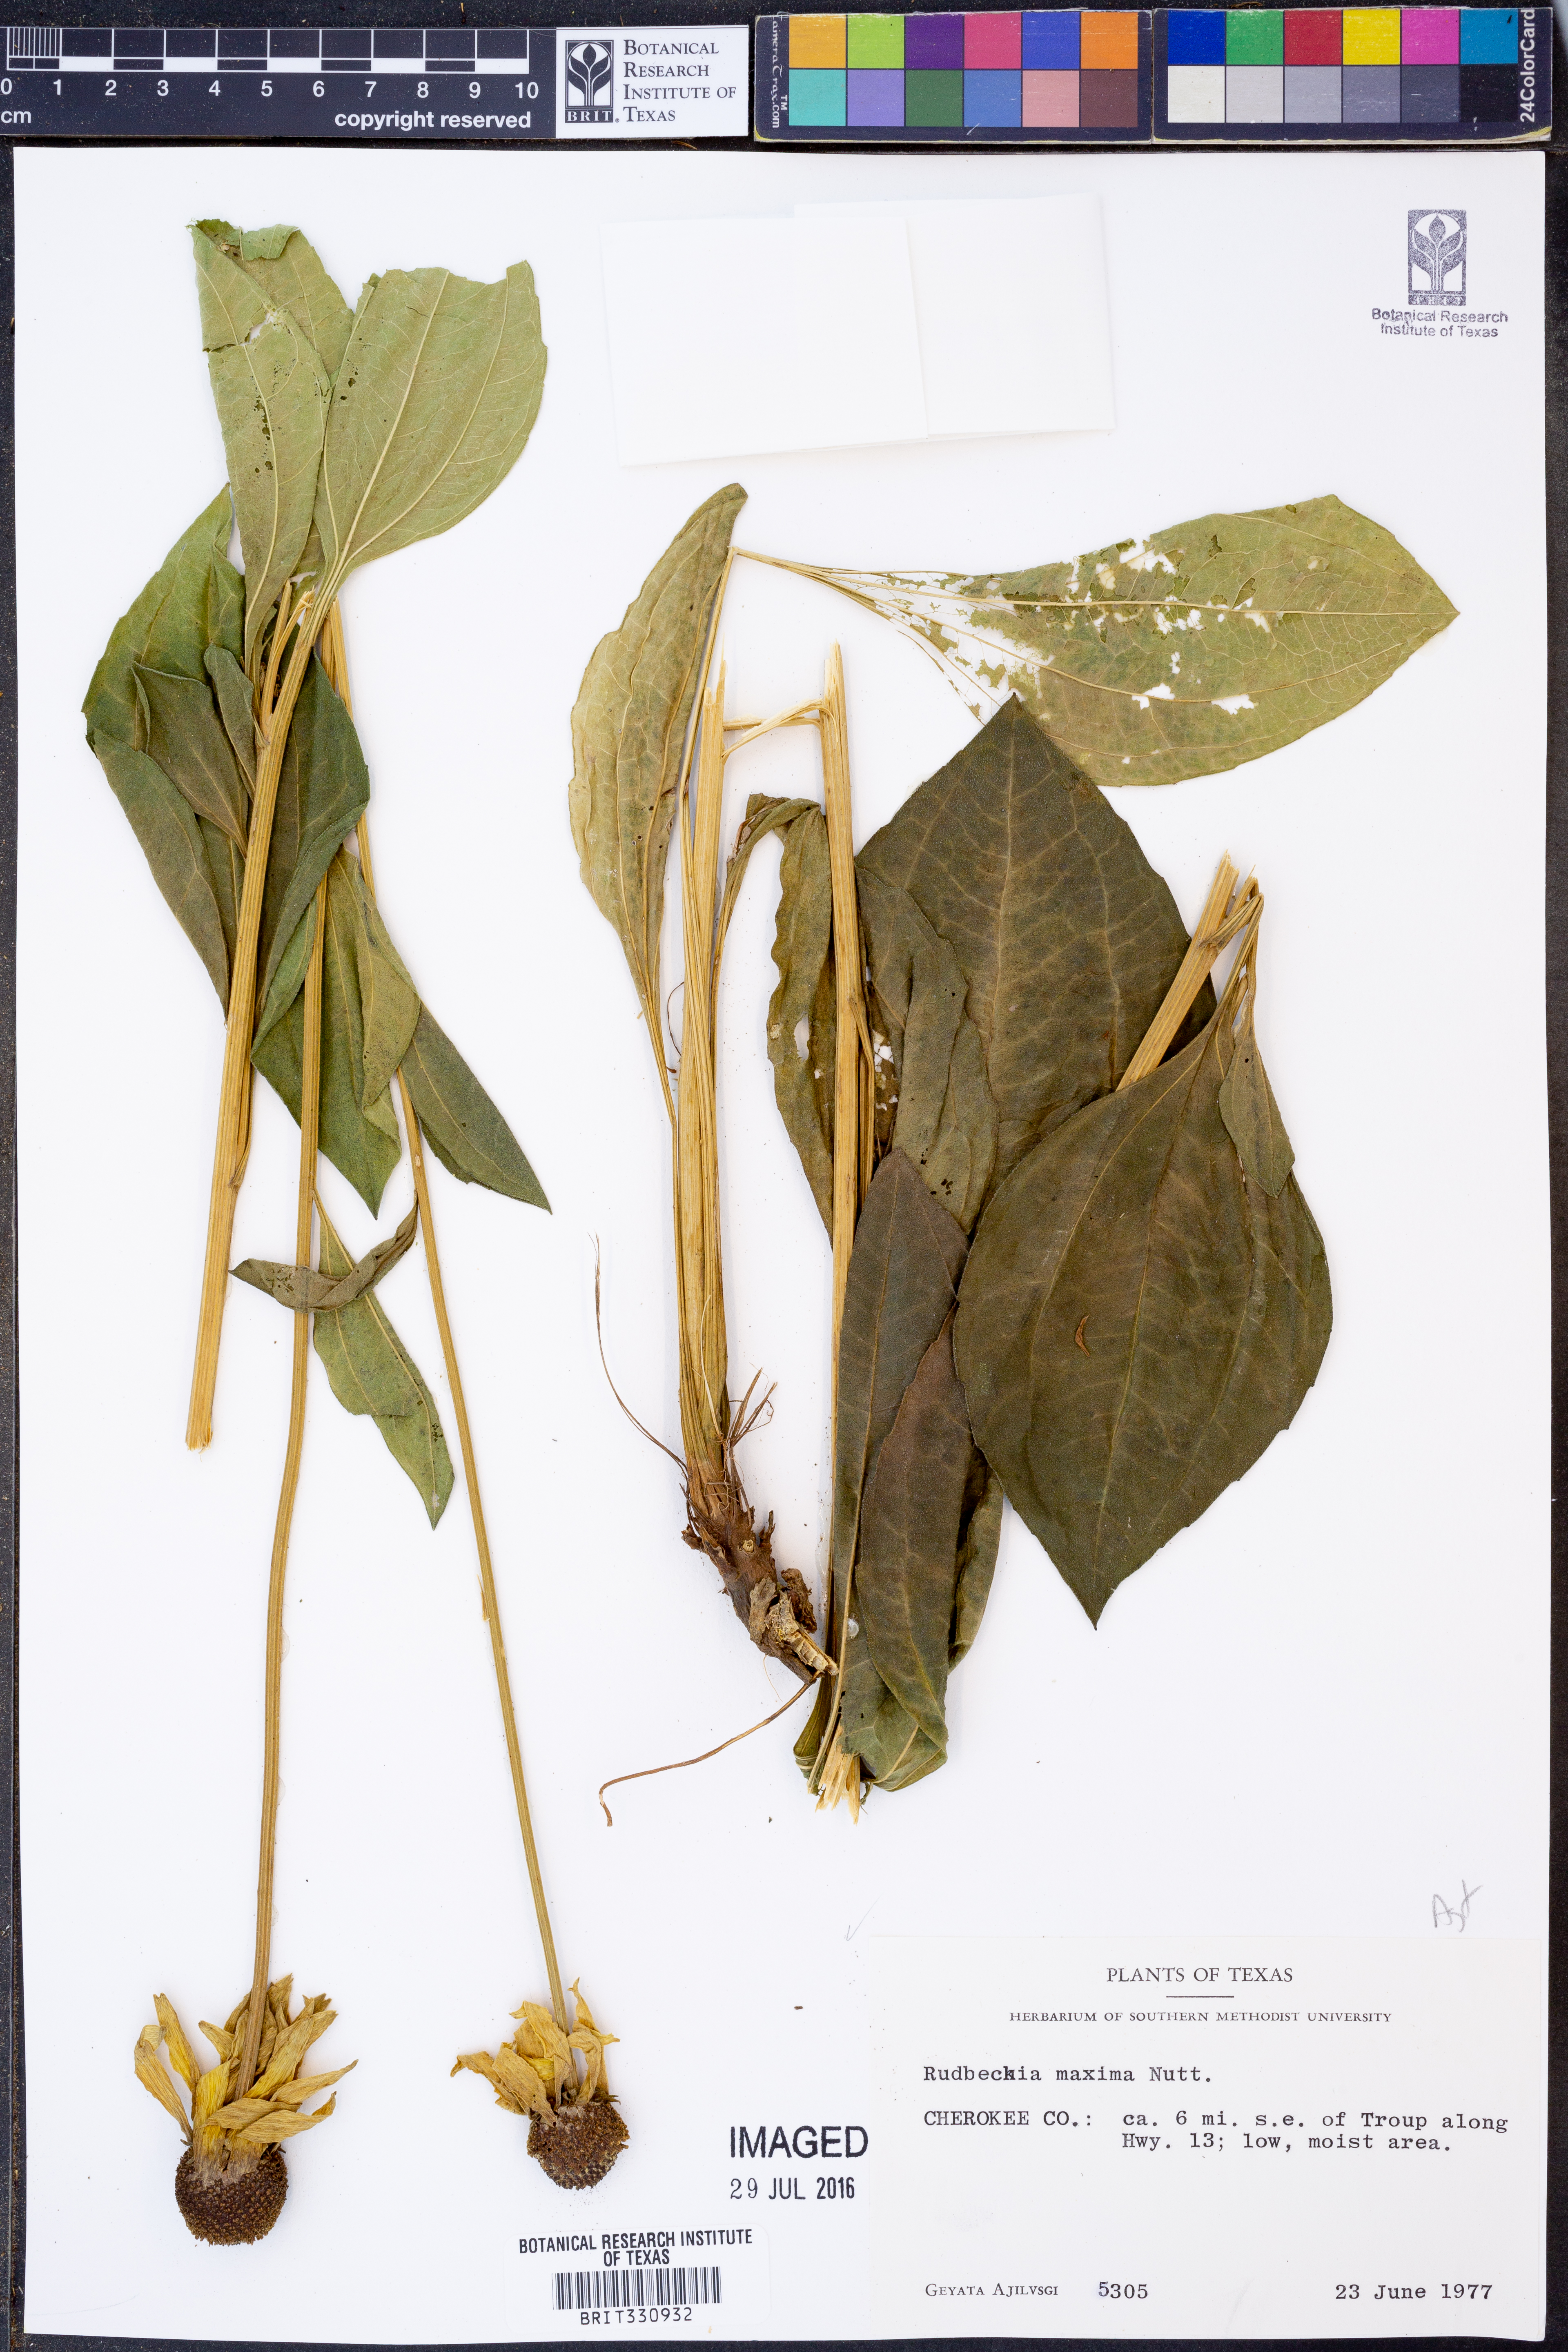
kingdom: Plantae
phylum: Tracheophyta
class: Magnoliopsida
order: Asterales
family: Asteraceae
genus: Rudbeckia
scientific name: Rudbeckia maxima
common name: Cabbage coneflower
